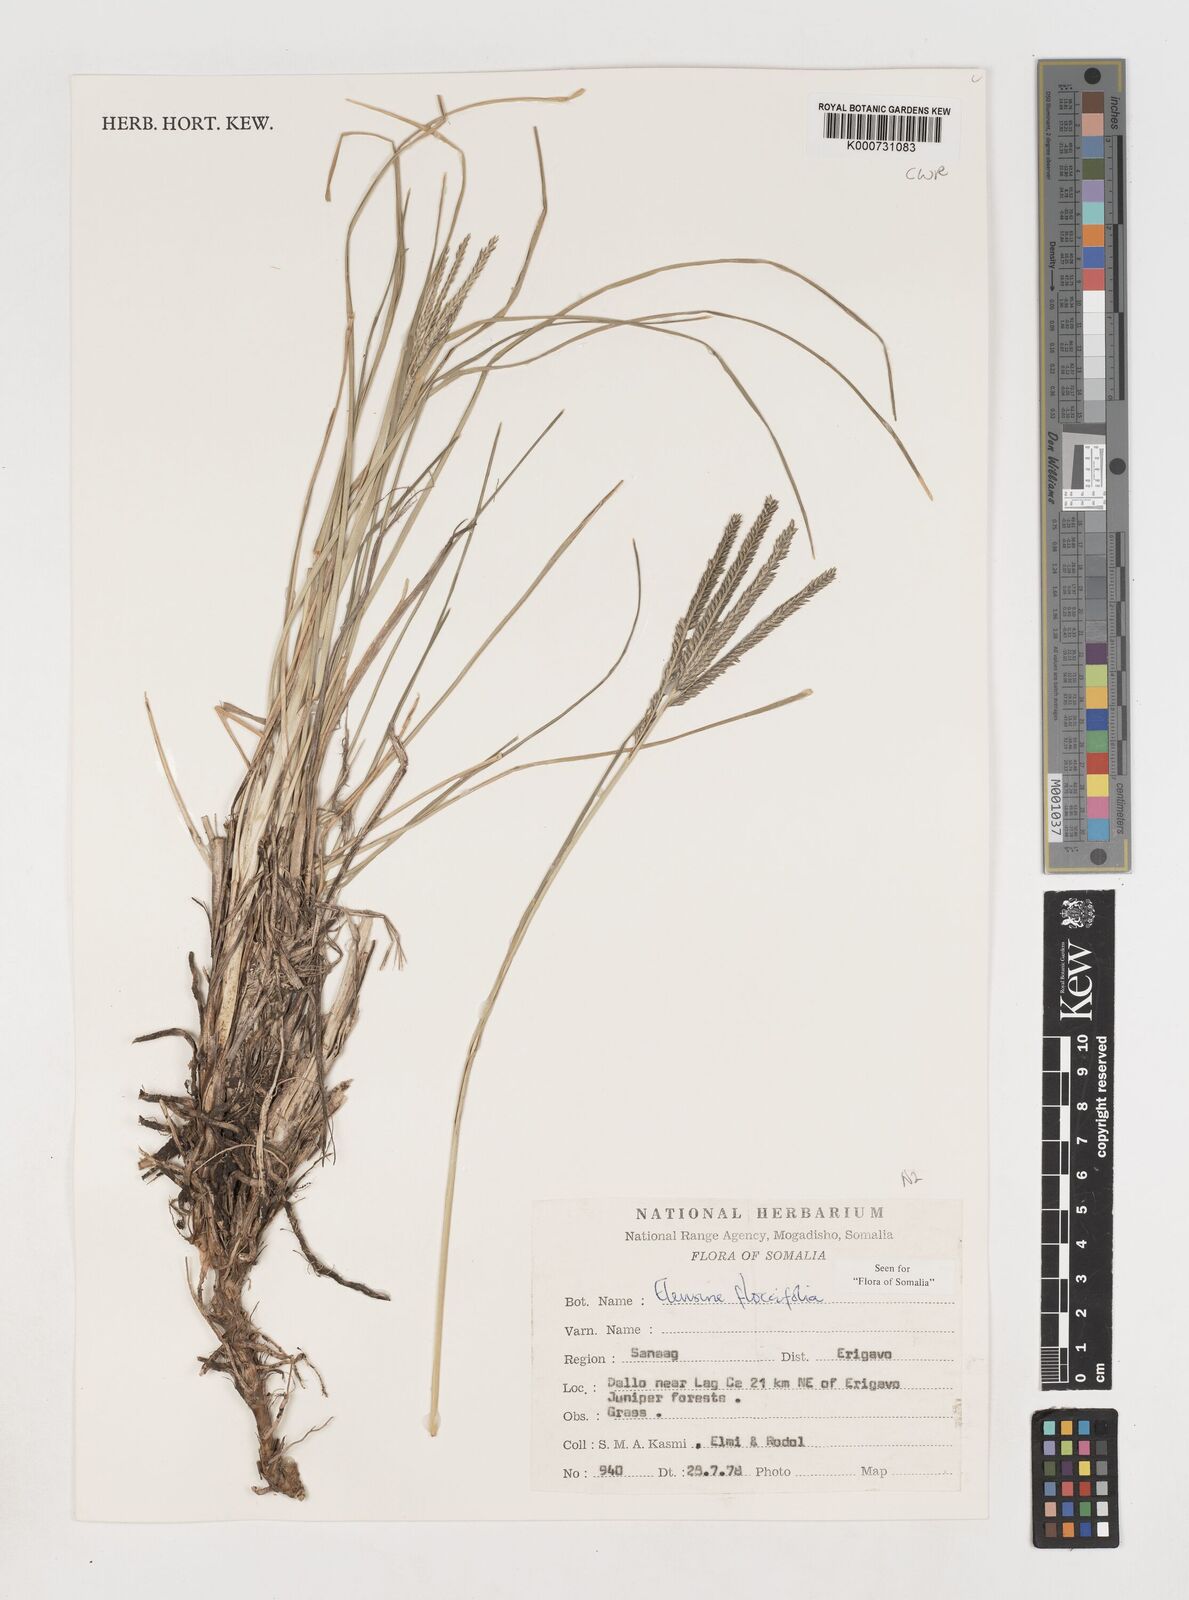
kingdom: Plantae
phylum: Tracheophyta
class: Liliopsida
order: Poales
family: Poaceae
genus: Eleusine
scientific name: Eleusine floccifolia
